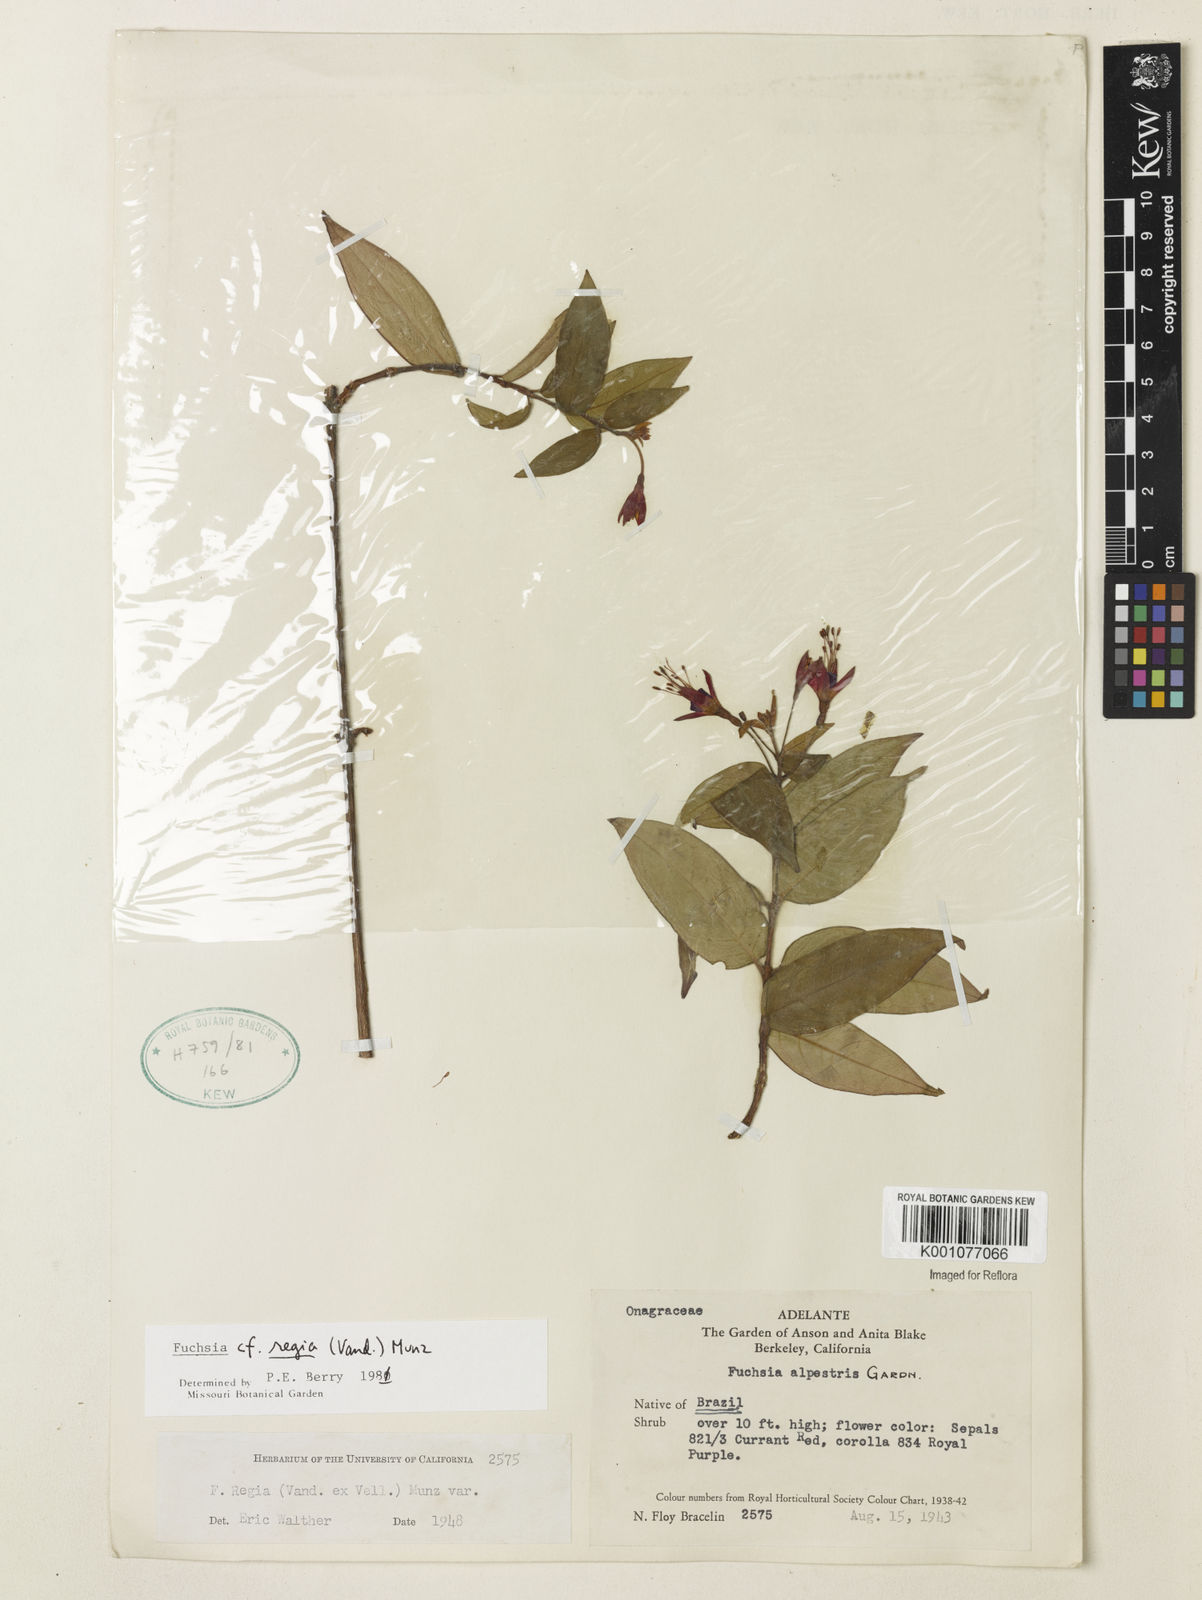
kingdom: Plantae
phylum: Tracheophyta
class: Magnoliopsida
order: Myrtales
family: Onagraceae
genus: Fuchsia
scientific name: Fuchsia regia
